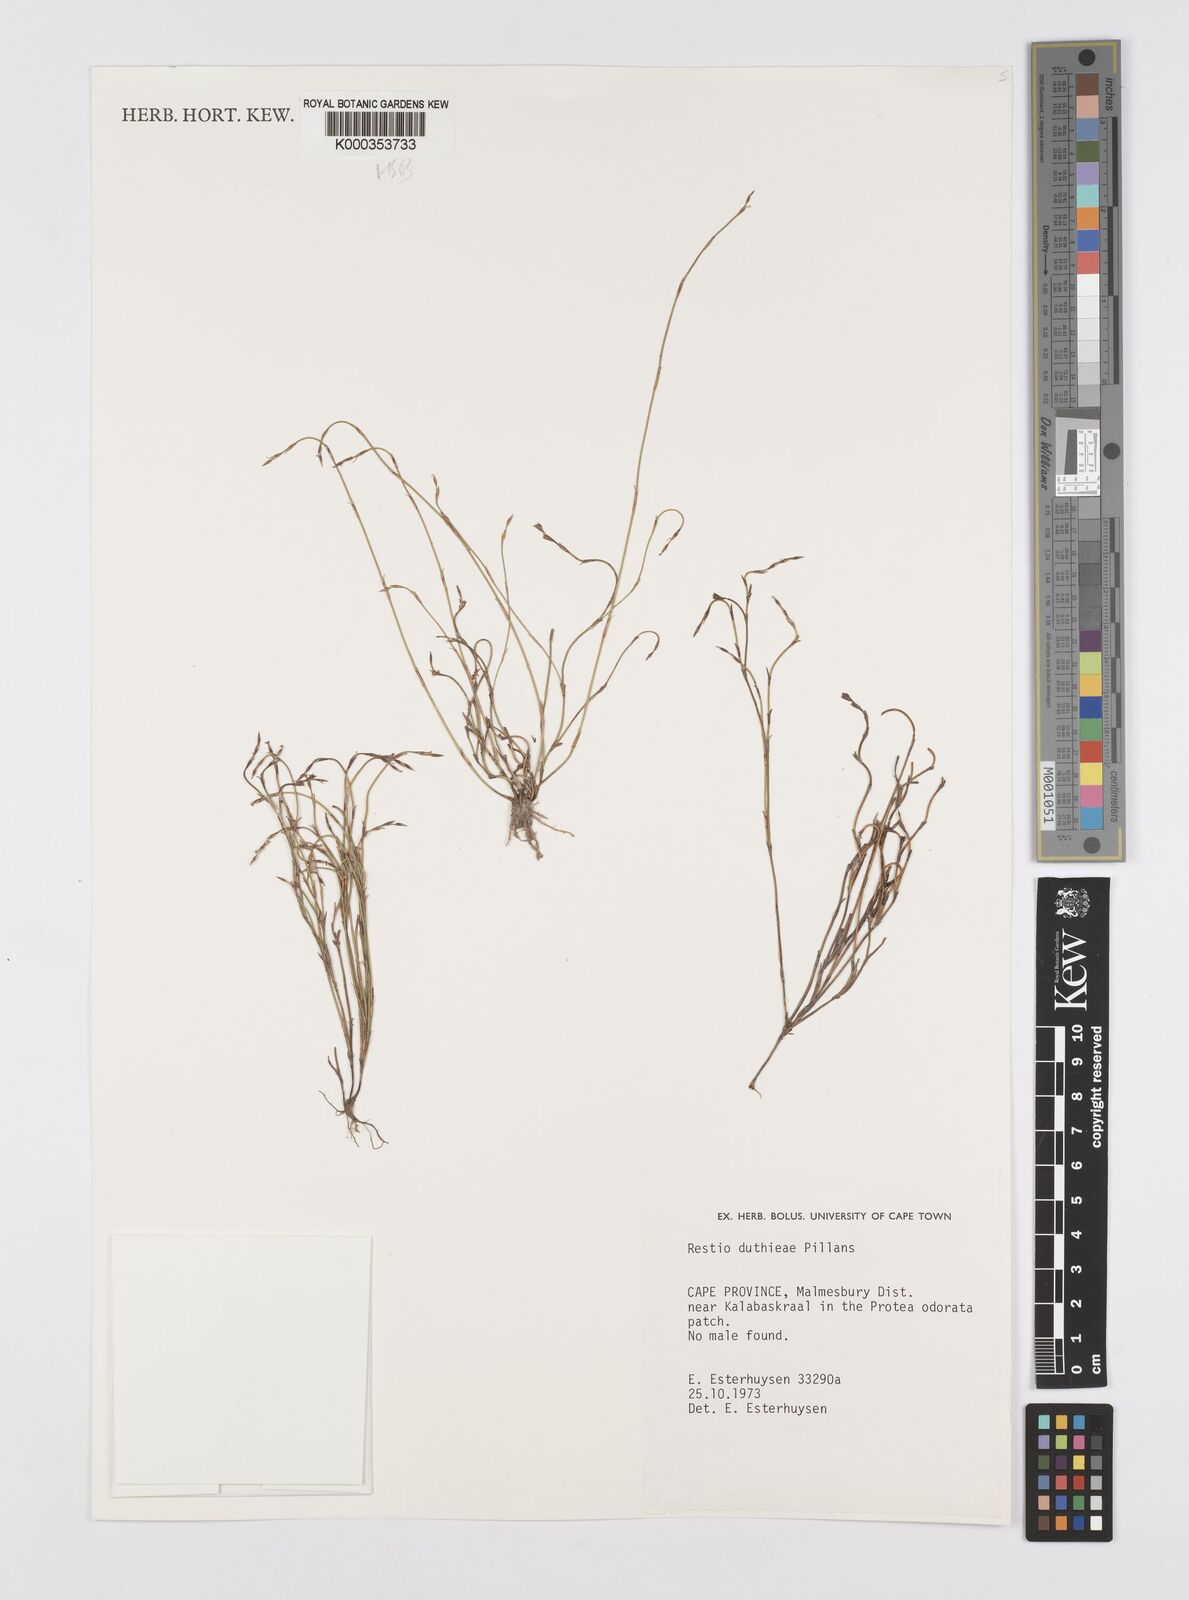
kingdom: Plantae
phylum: Tracheophyta
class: Liliopsida
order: Poales
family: Restionaceae
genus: Restio
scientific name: Restio duthieae
